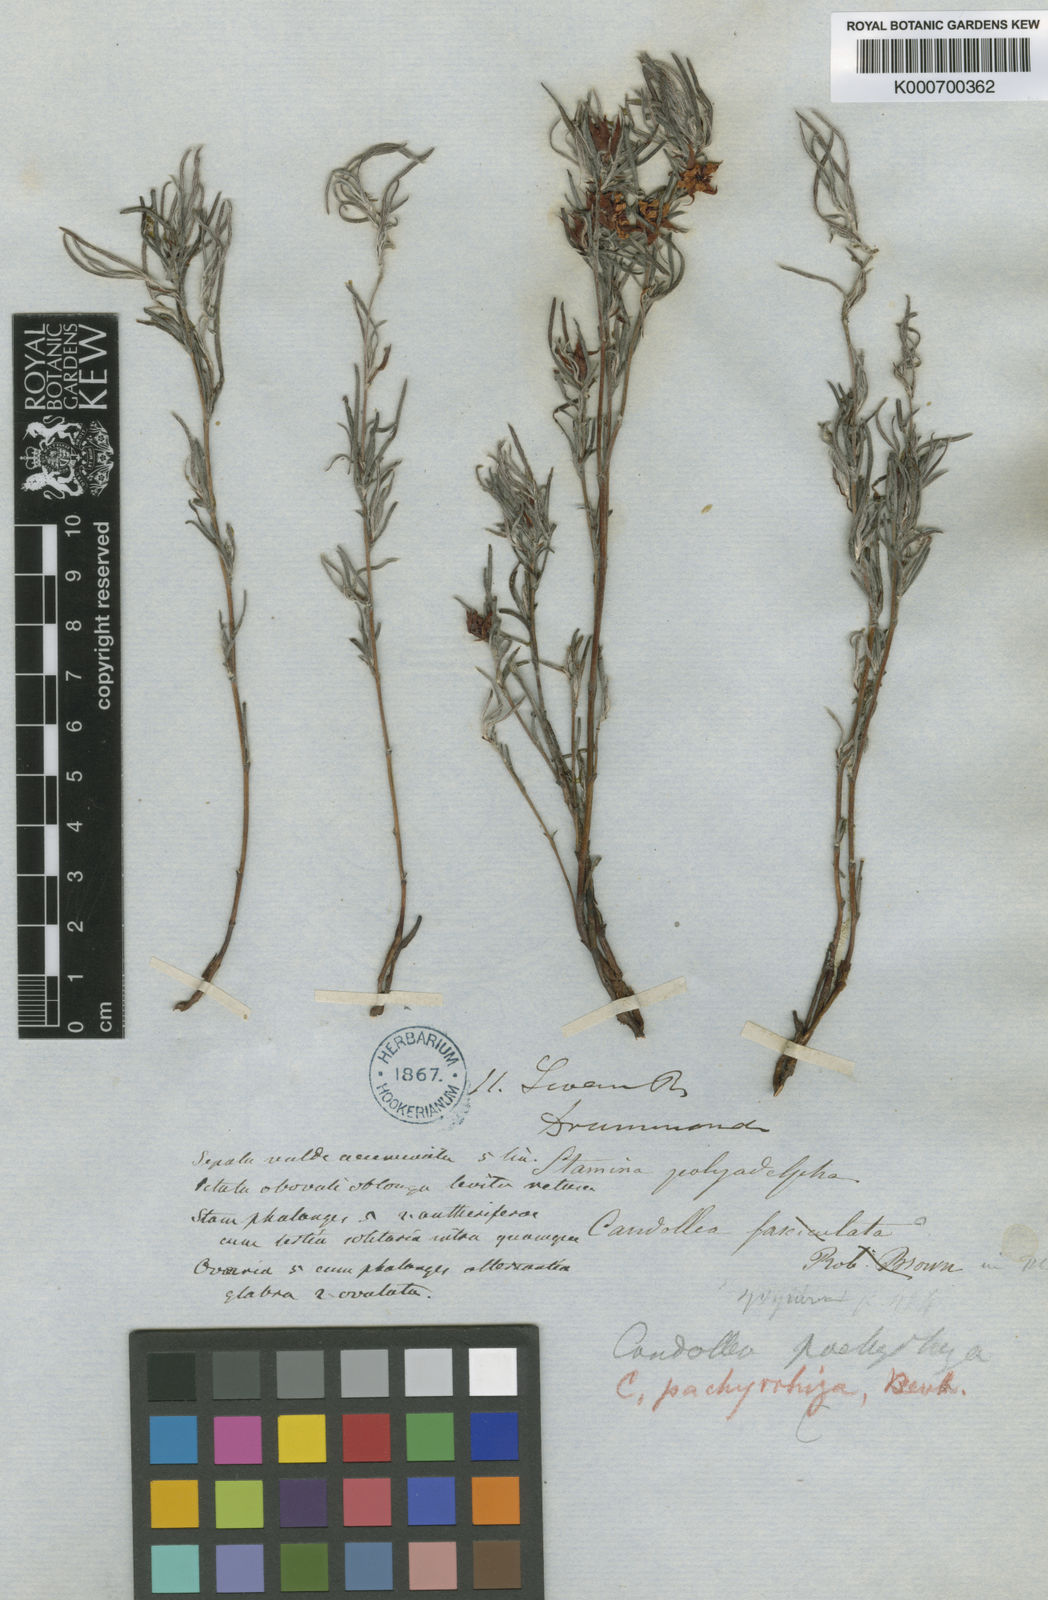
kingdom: Plantae
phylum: Tracheophyta
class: Magnoliopsida
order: Dilleniales
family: Dilleniaceae
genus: Hibbertia
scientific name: Hibbertia huegelii
